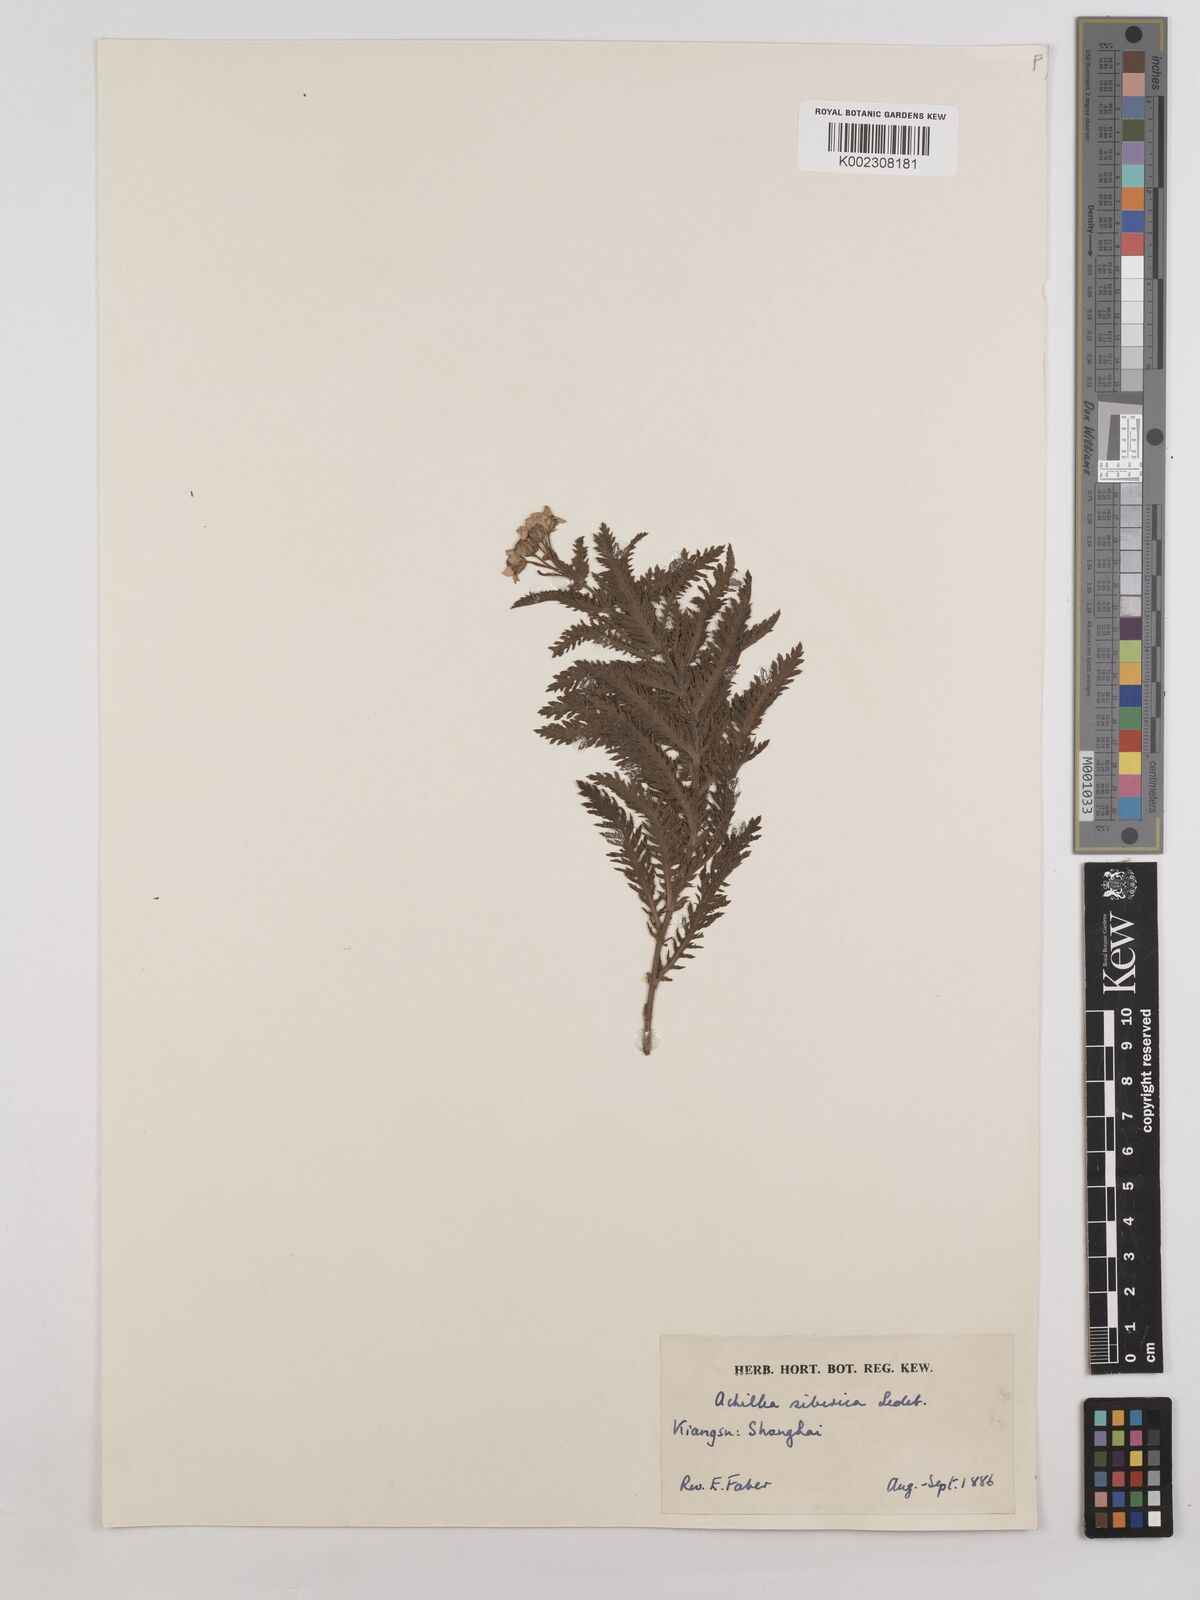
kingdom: Plantae
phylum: Tracheophyta
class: Magnoliopsida
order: Asterales
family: Asteraceae
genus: Achillea
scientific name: Achillea alpina
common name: Siberian yarrow
